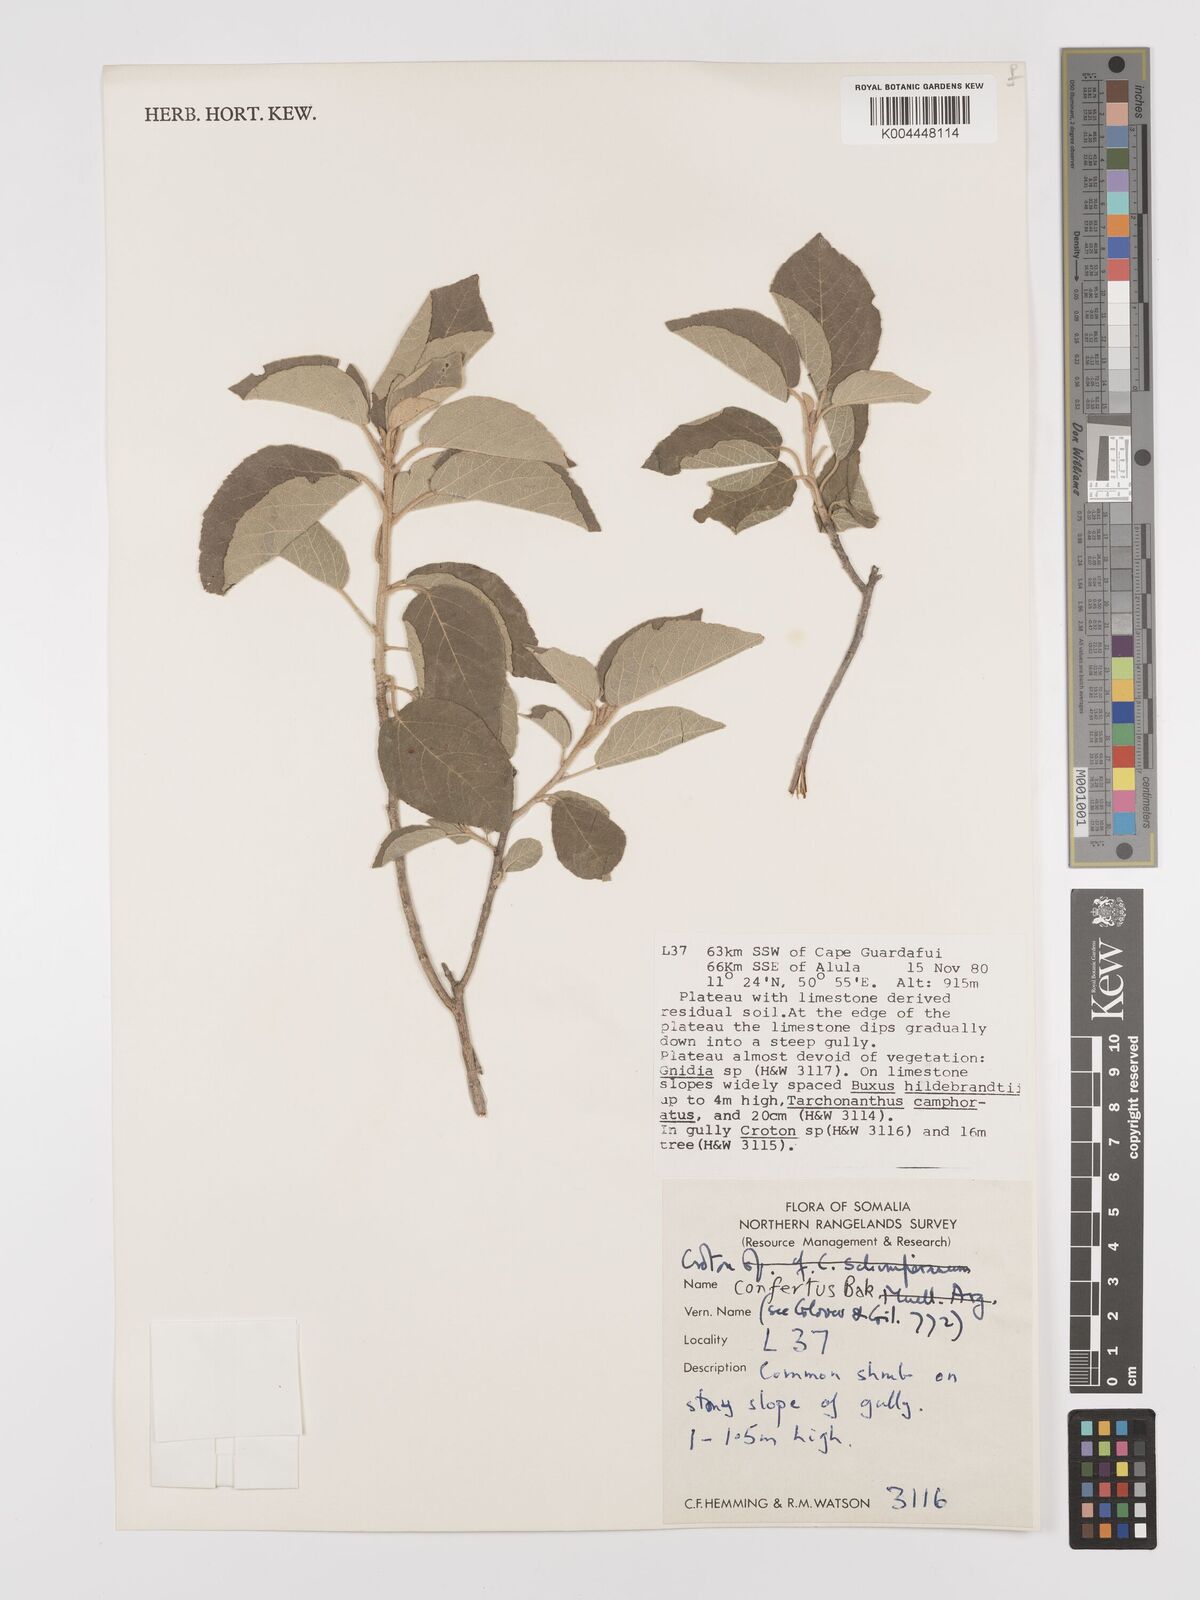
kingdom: Plantae
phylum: Tracheophyta
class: Magnoliopsida
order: Malpighiales
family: Euphorbiaceae
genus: Croton
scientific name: Croton confertus
